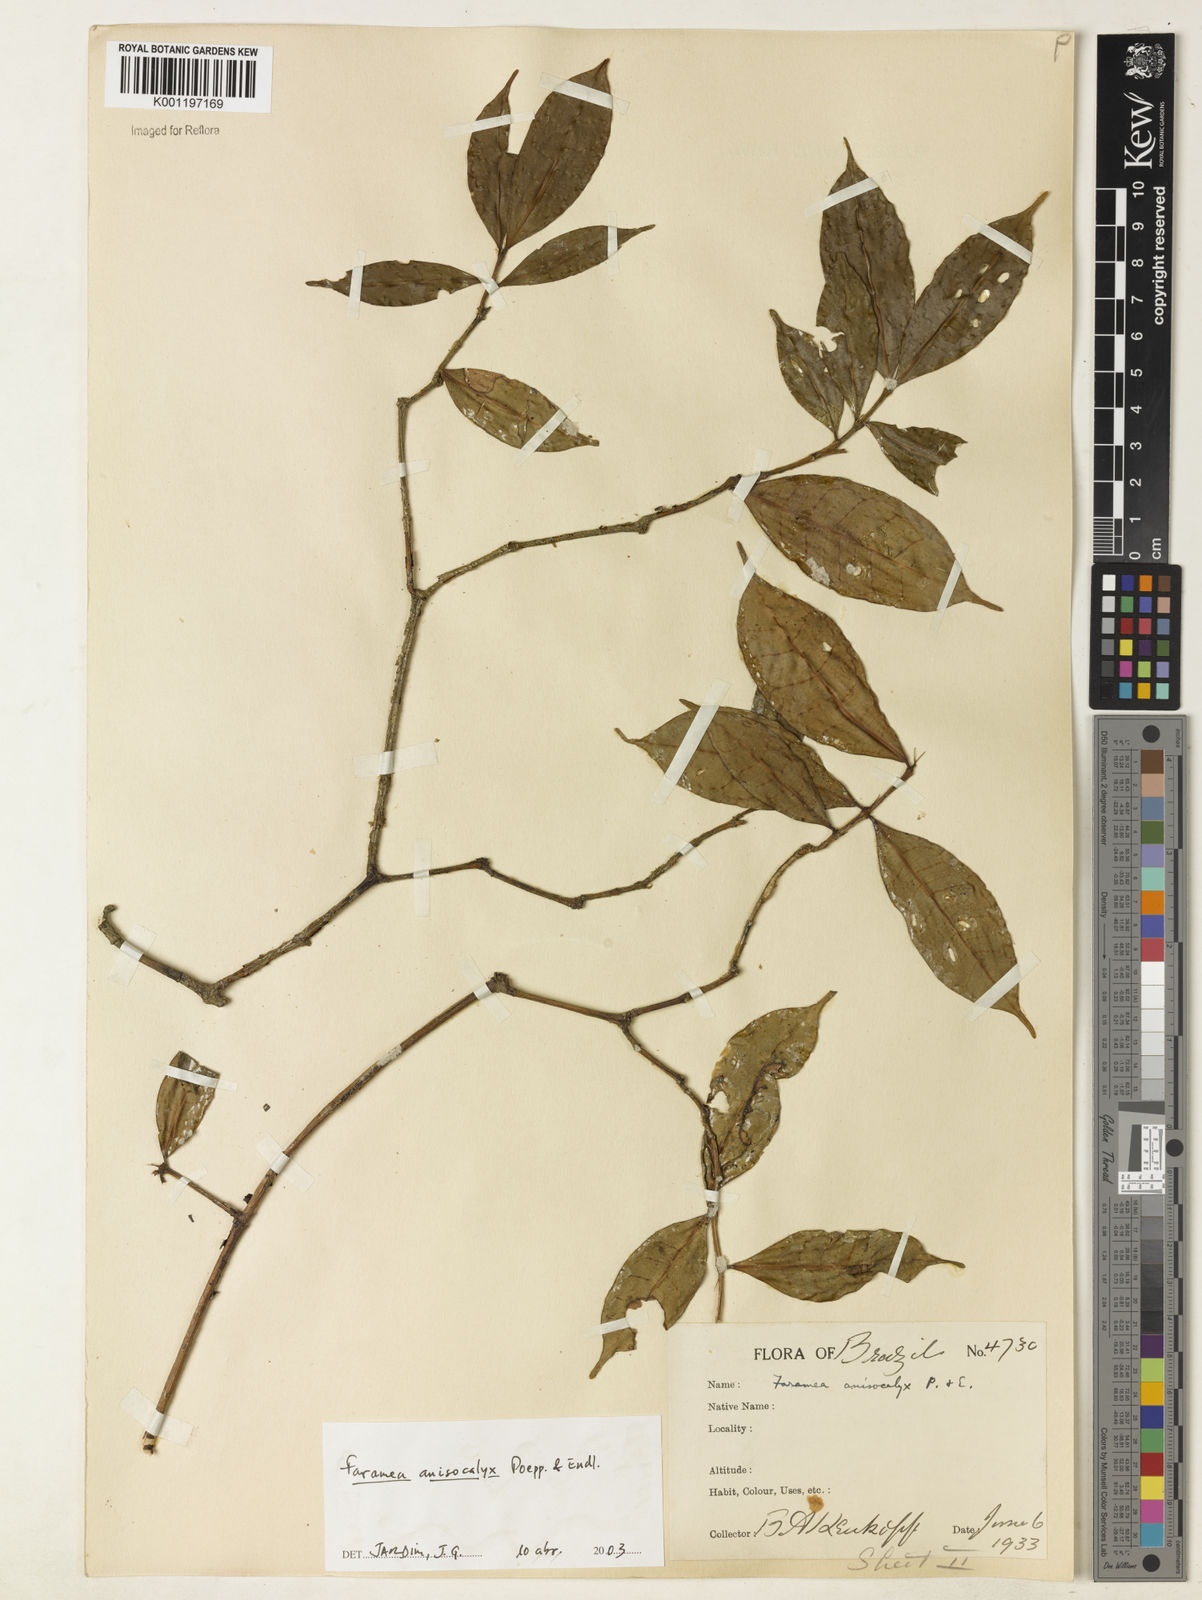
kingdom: Plantae
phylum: Tracheophyta
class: Magnoliopsida
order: Gentianales
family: Rubiaceae
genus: Faramea
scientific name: Faramea anisocalyx
